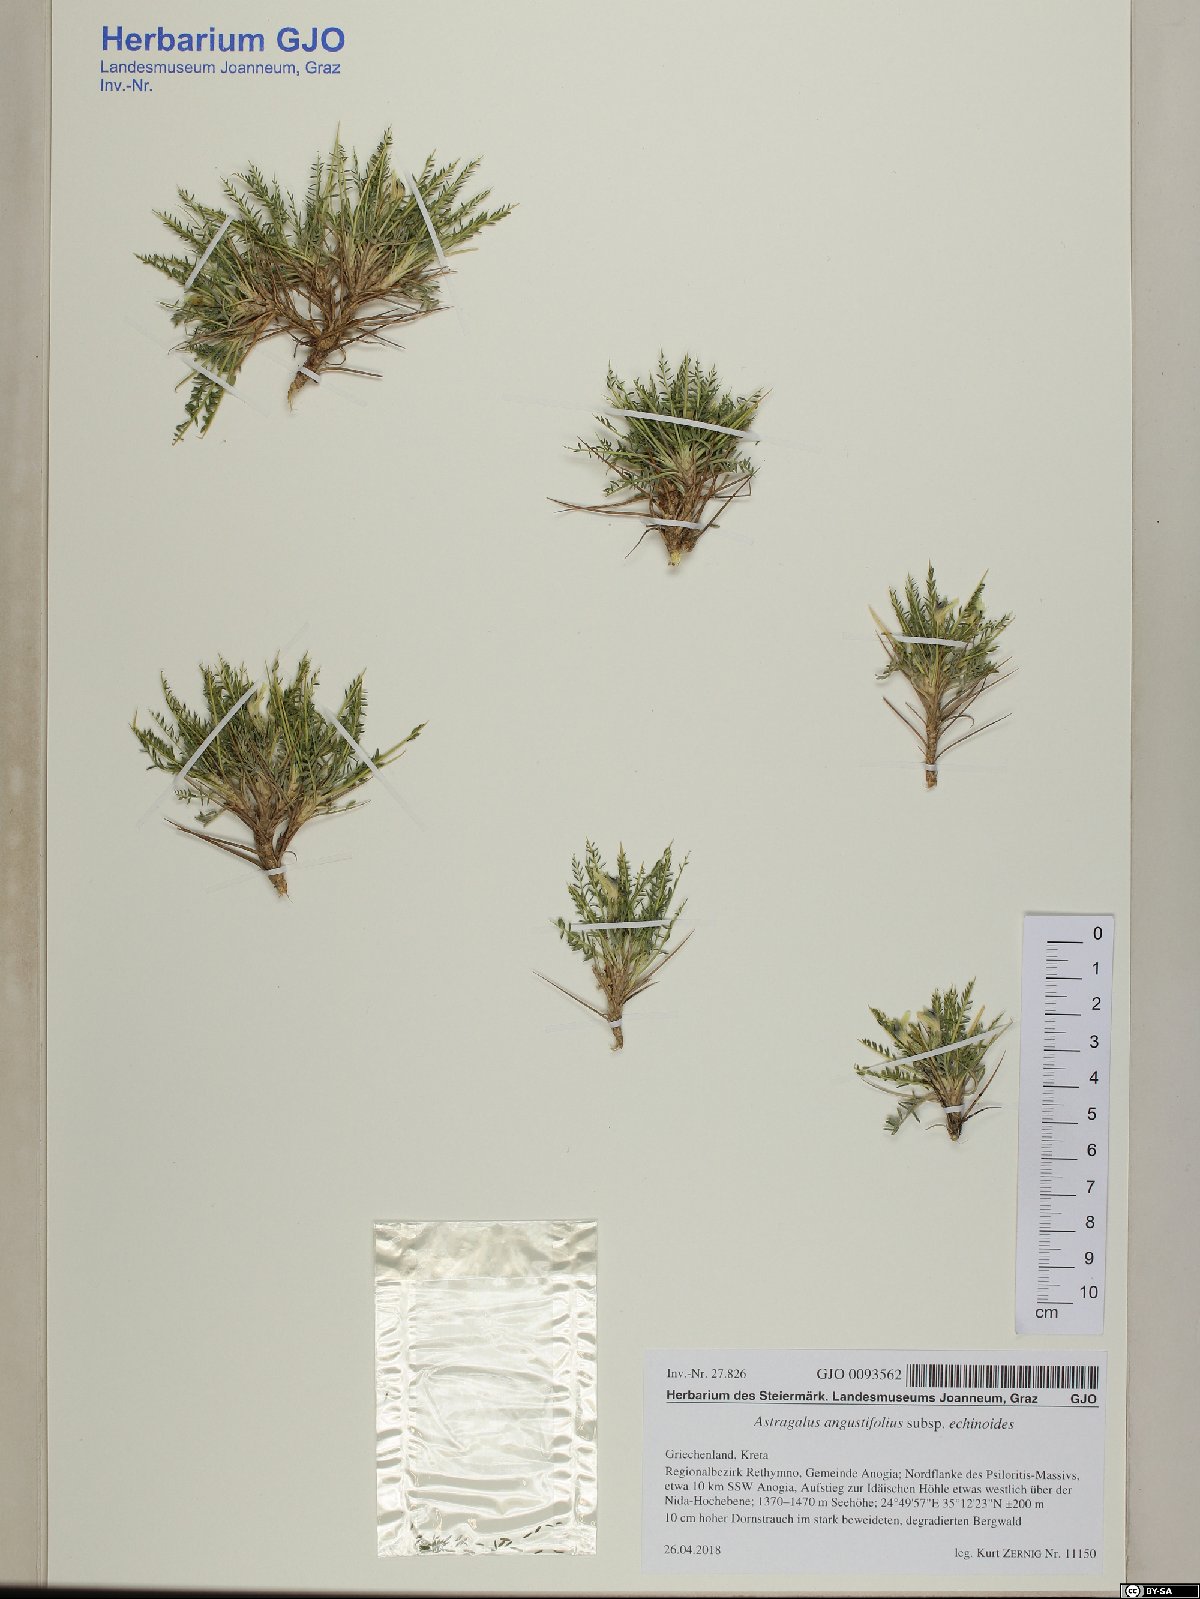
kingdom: Plantae
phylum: Tracheophyta
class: Magnoliopsida
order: Fabales
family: Fabaceae
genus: Astragalus
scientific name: Astragalus angustifolius
